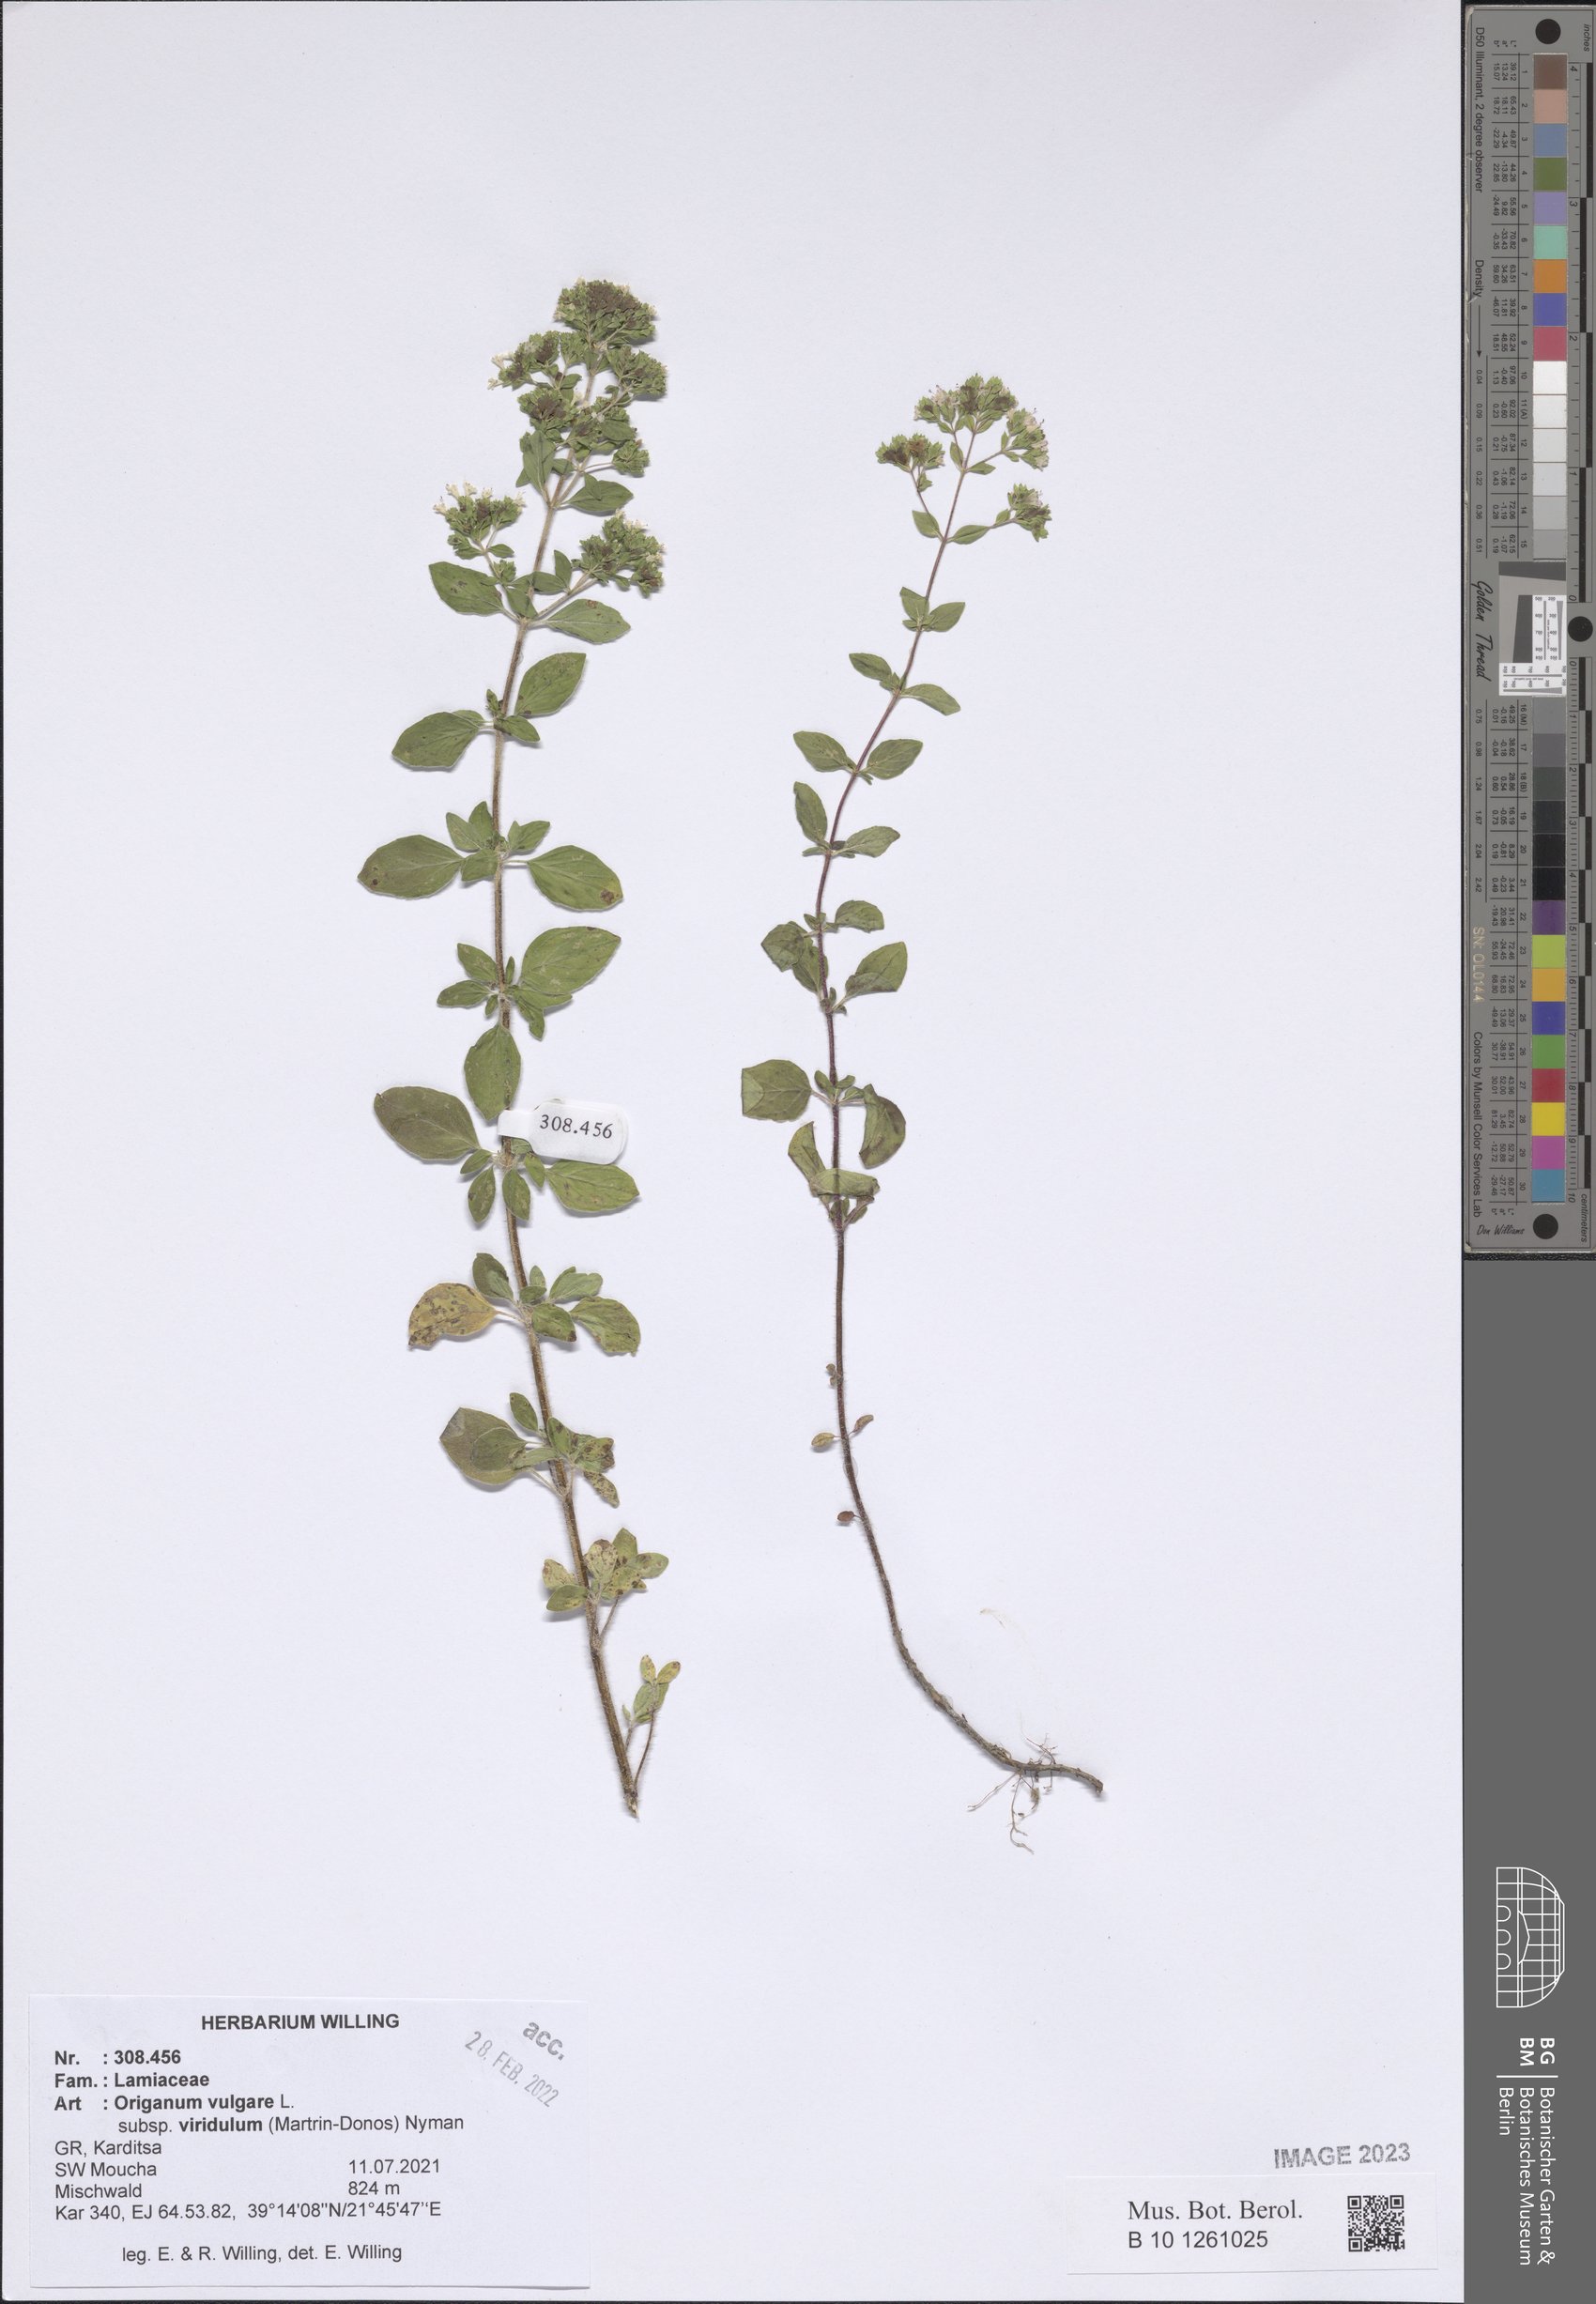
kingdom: Plantae
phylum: Tracheophyta
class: Magnoliopsida
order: Lamiales
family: Lamiaceae
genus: Origanum
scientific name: Origanum vulgare
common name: Wild marjoram
